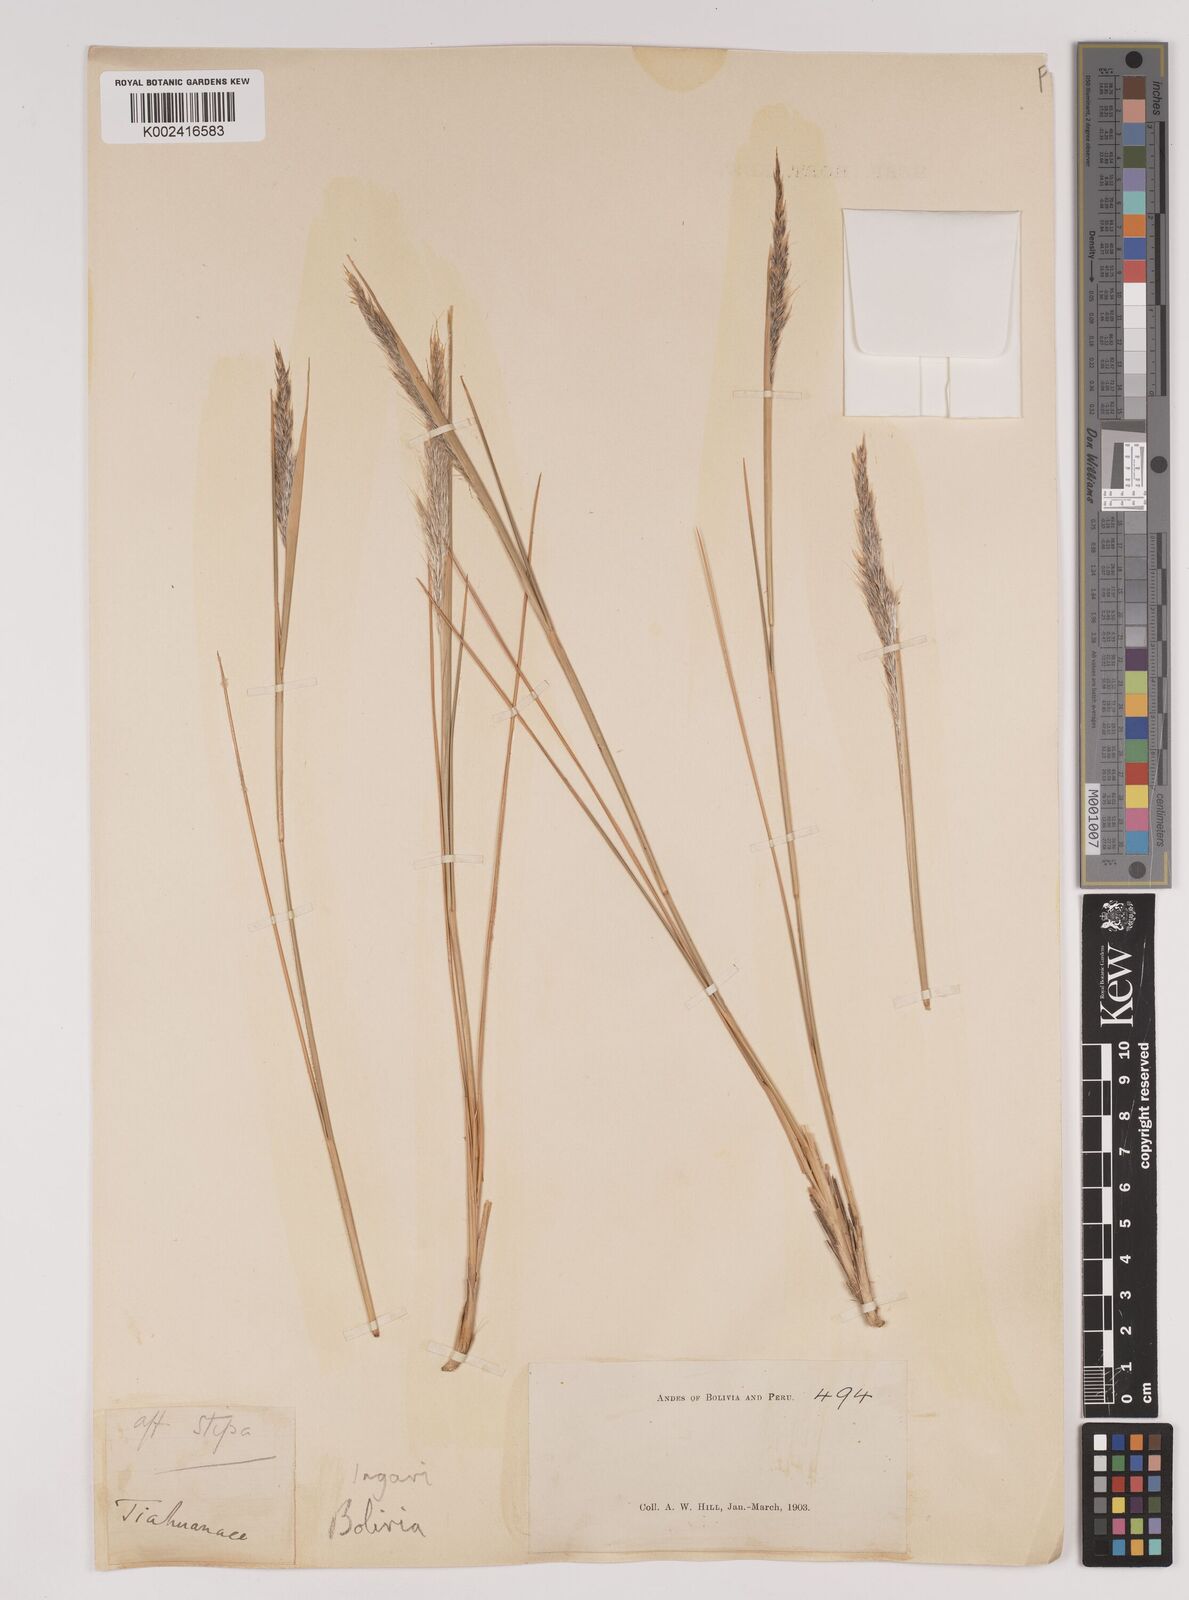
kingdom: Plantae
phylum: Tracheophyta
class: Liliopsida
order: Poales
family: Poaceae
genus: Jarava
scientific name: Jarava leptostachya
